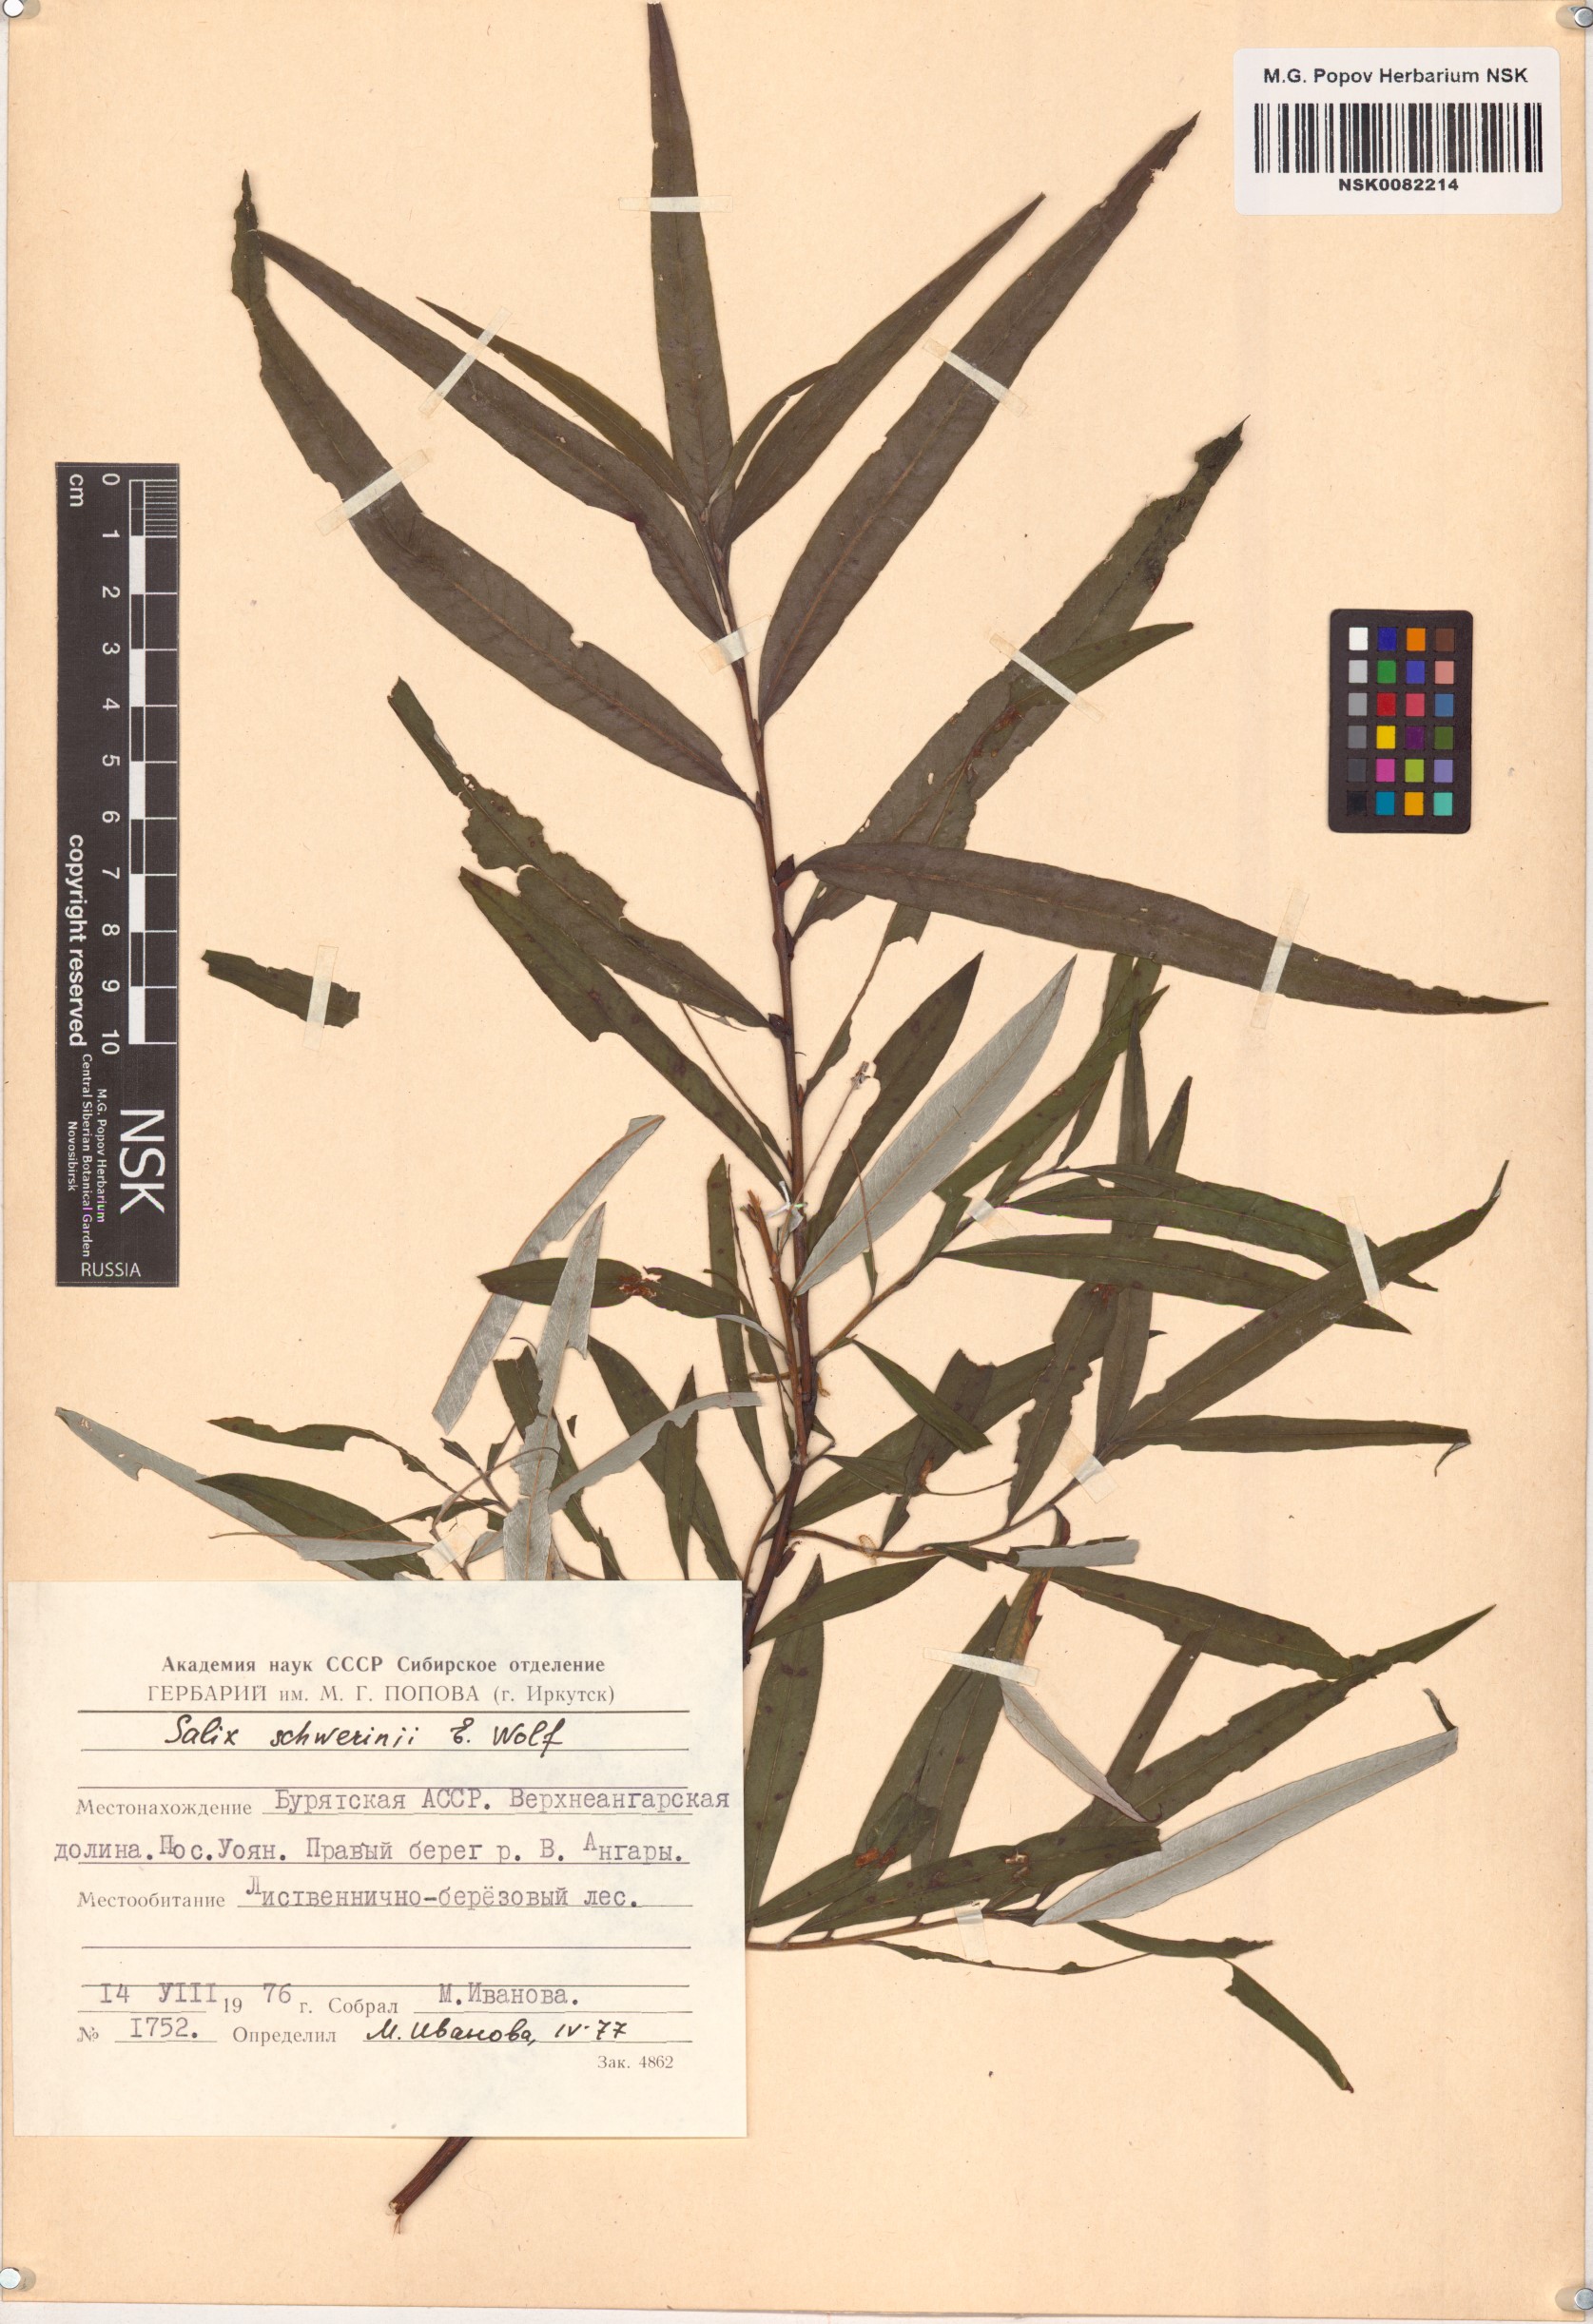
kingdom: Plantae
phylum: Tracheophyta
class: Magnoliopsida
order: Malpighiales
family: Salicaceae
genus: Salix
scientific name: Salix schwerinii
